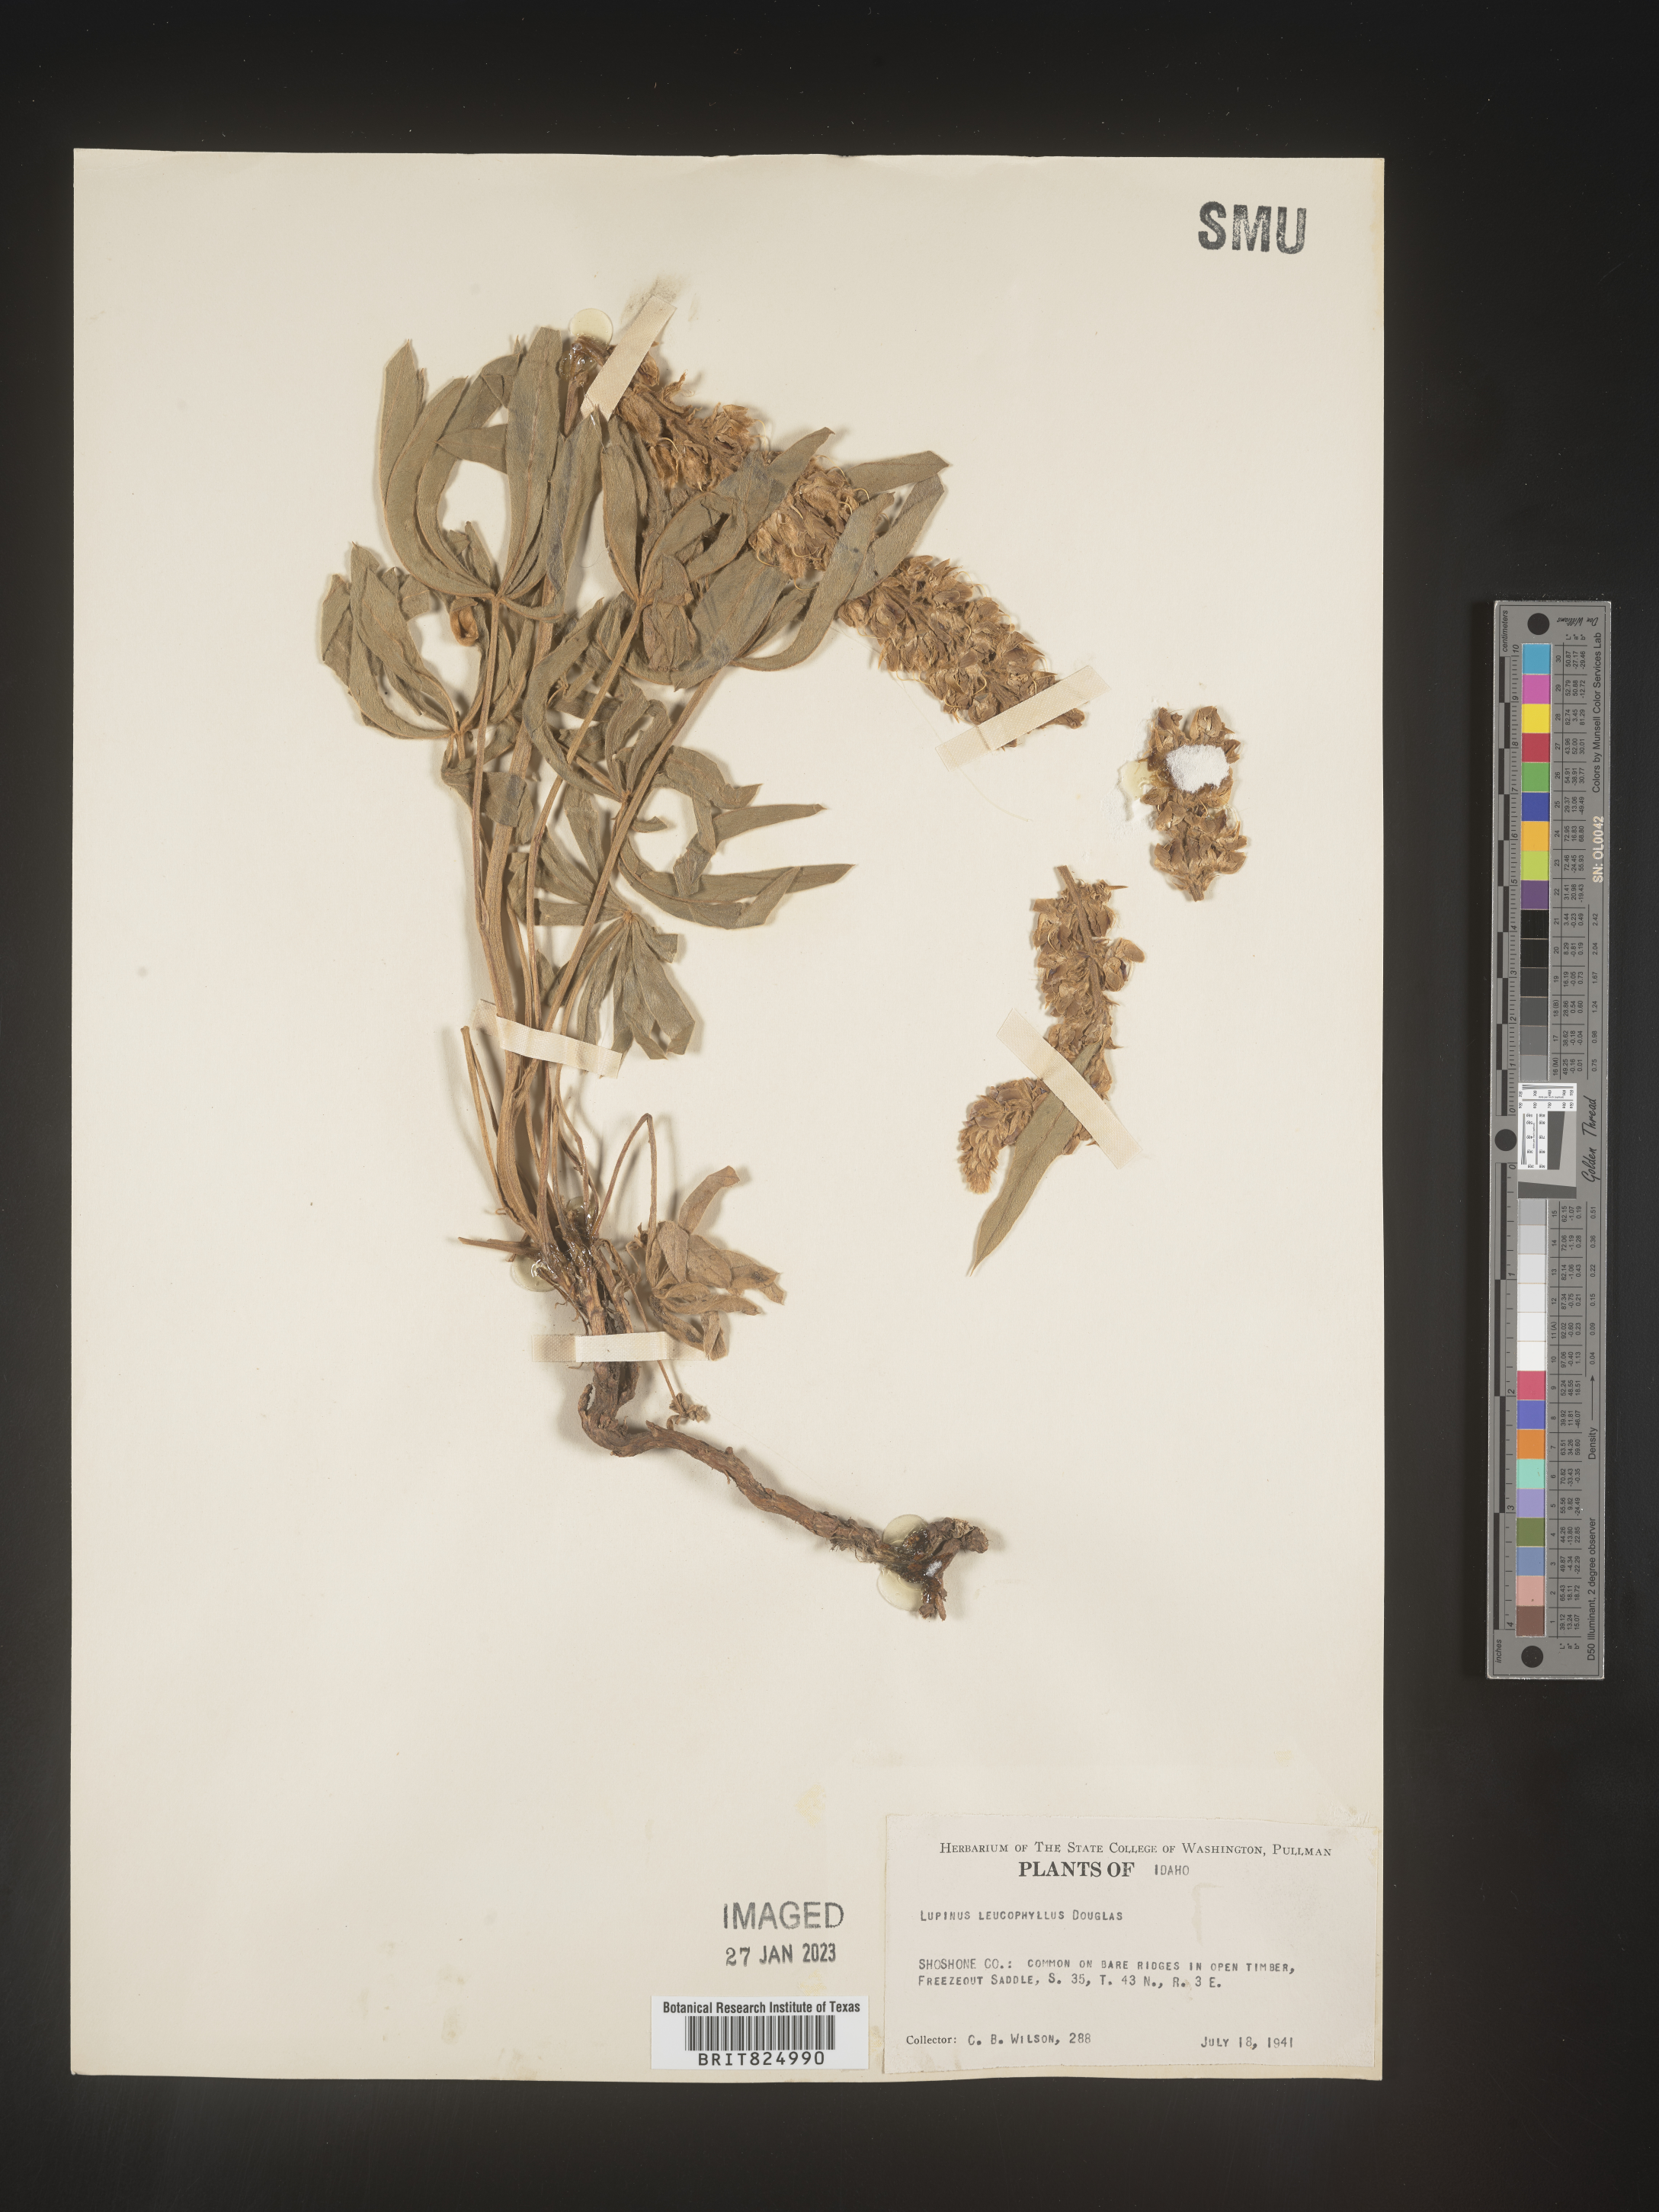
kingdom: Plantae
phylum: Tracheophyta
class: Magnoliopsida
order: Fabales
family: Fabaceae
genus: Lupinus
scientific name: Lupinus
